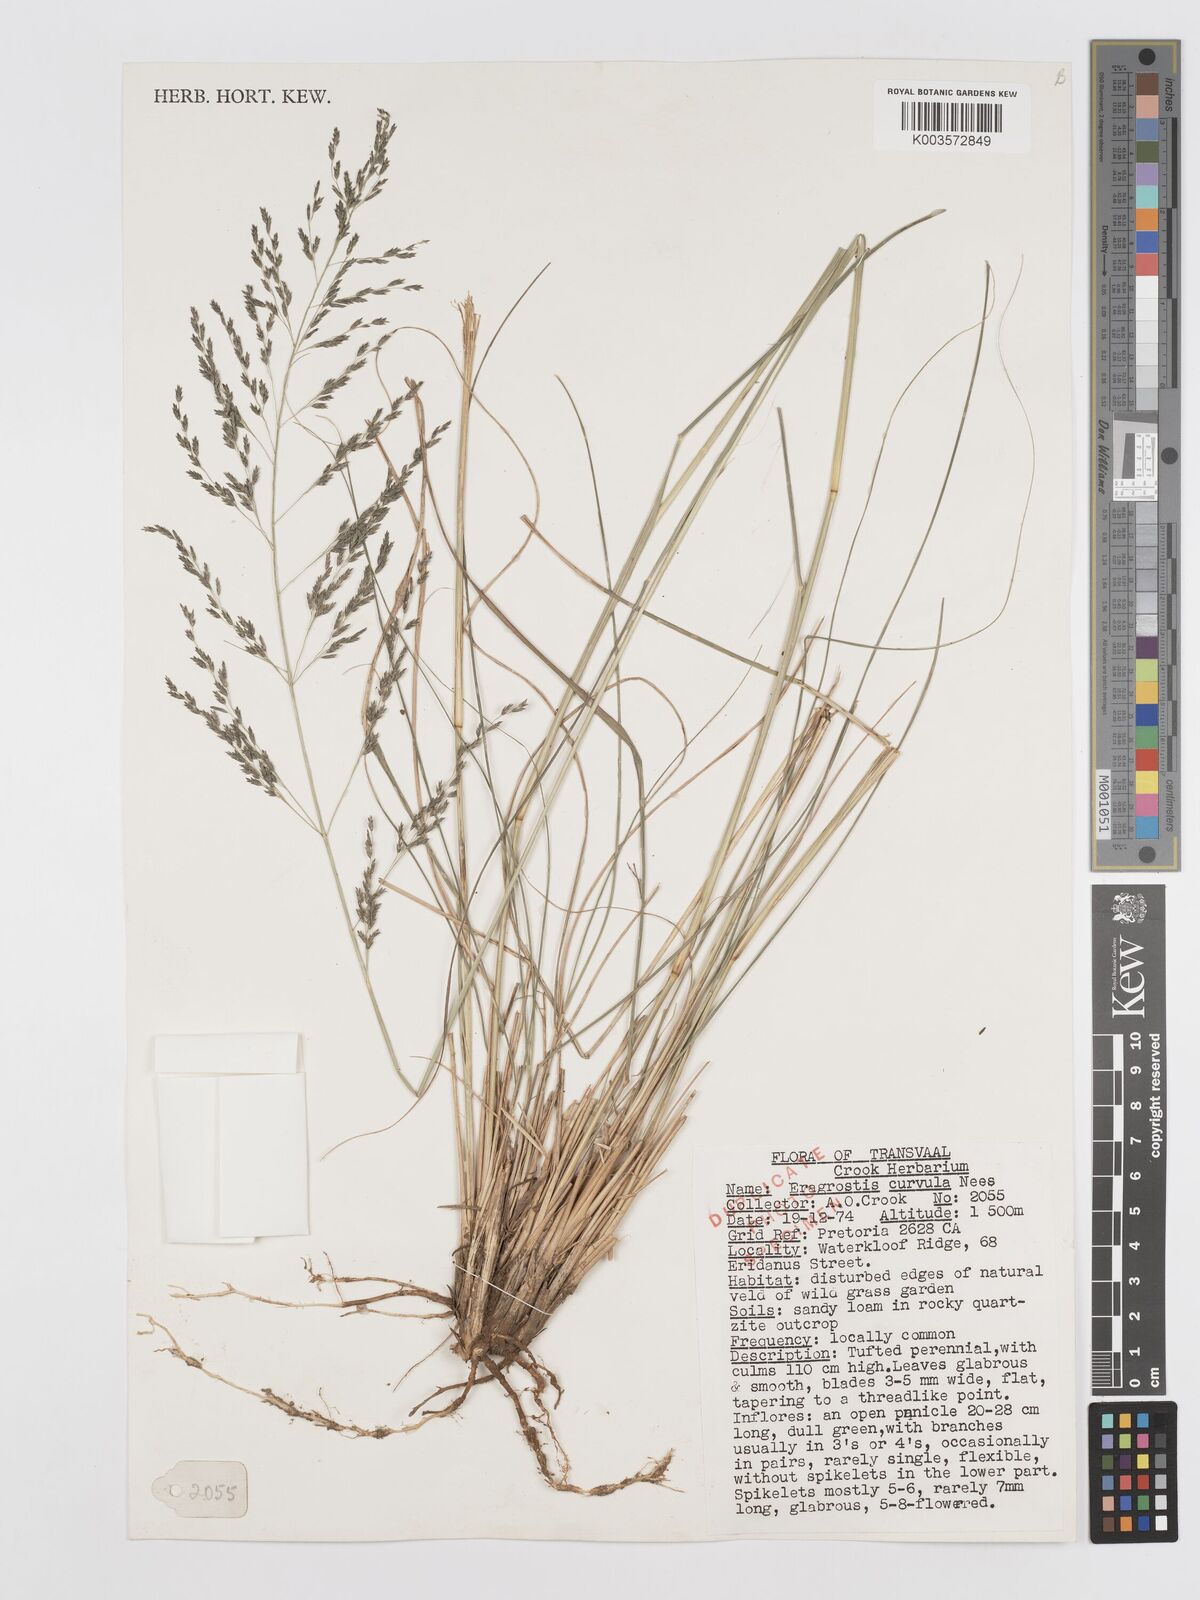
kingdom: Plantae
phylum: Tracheophyta
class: Liliopsida
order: Poales
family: Poaceae
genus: Eragrostis
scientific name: Eragrostis curvula
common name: African love-grass
